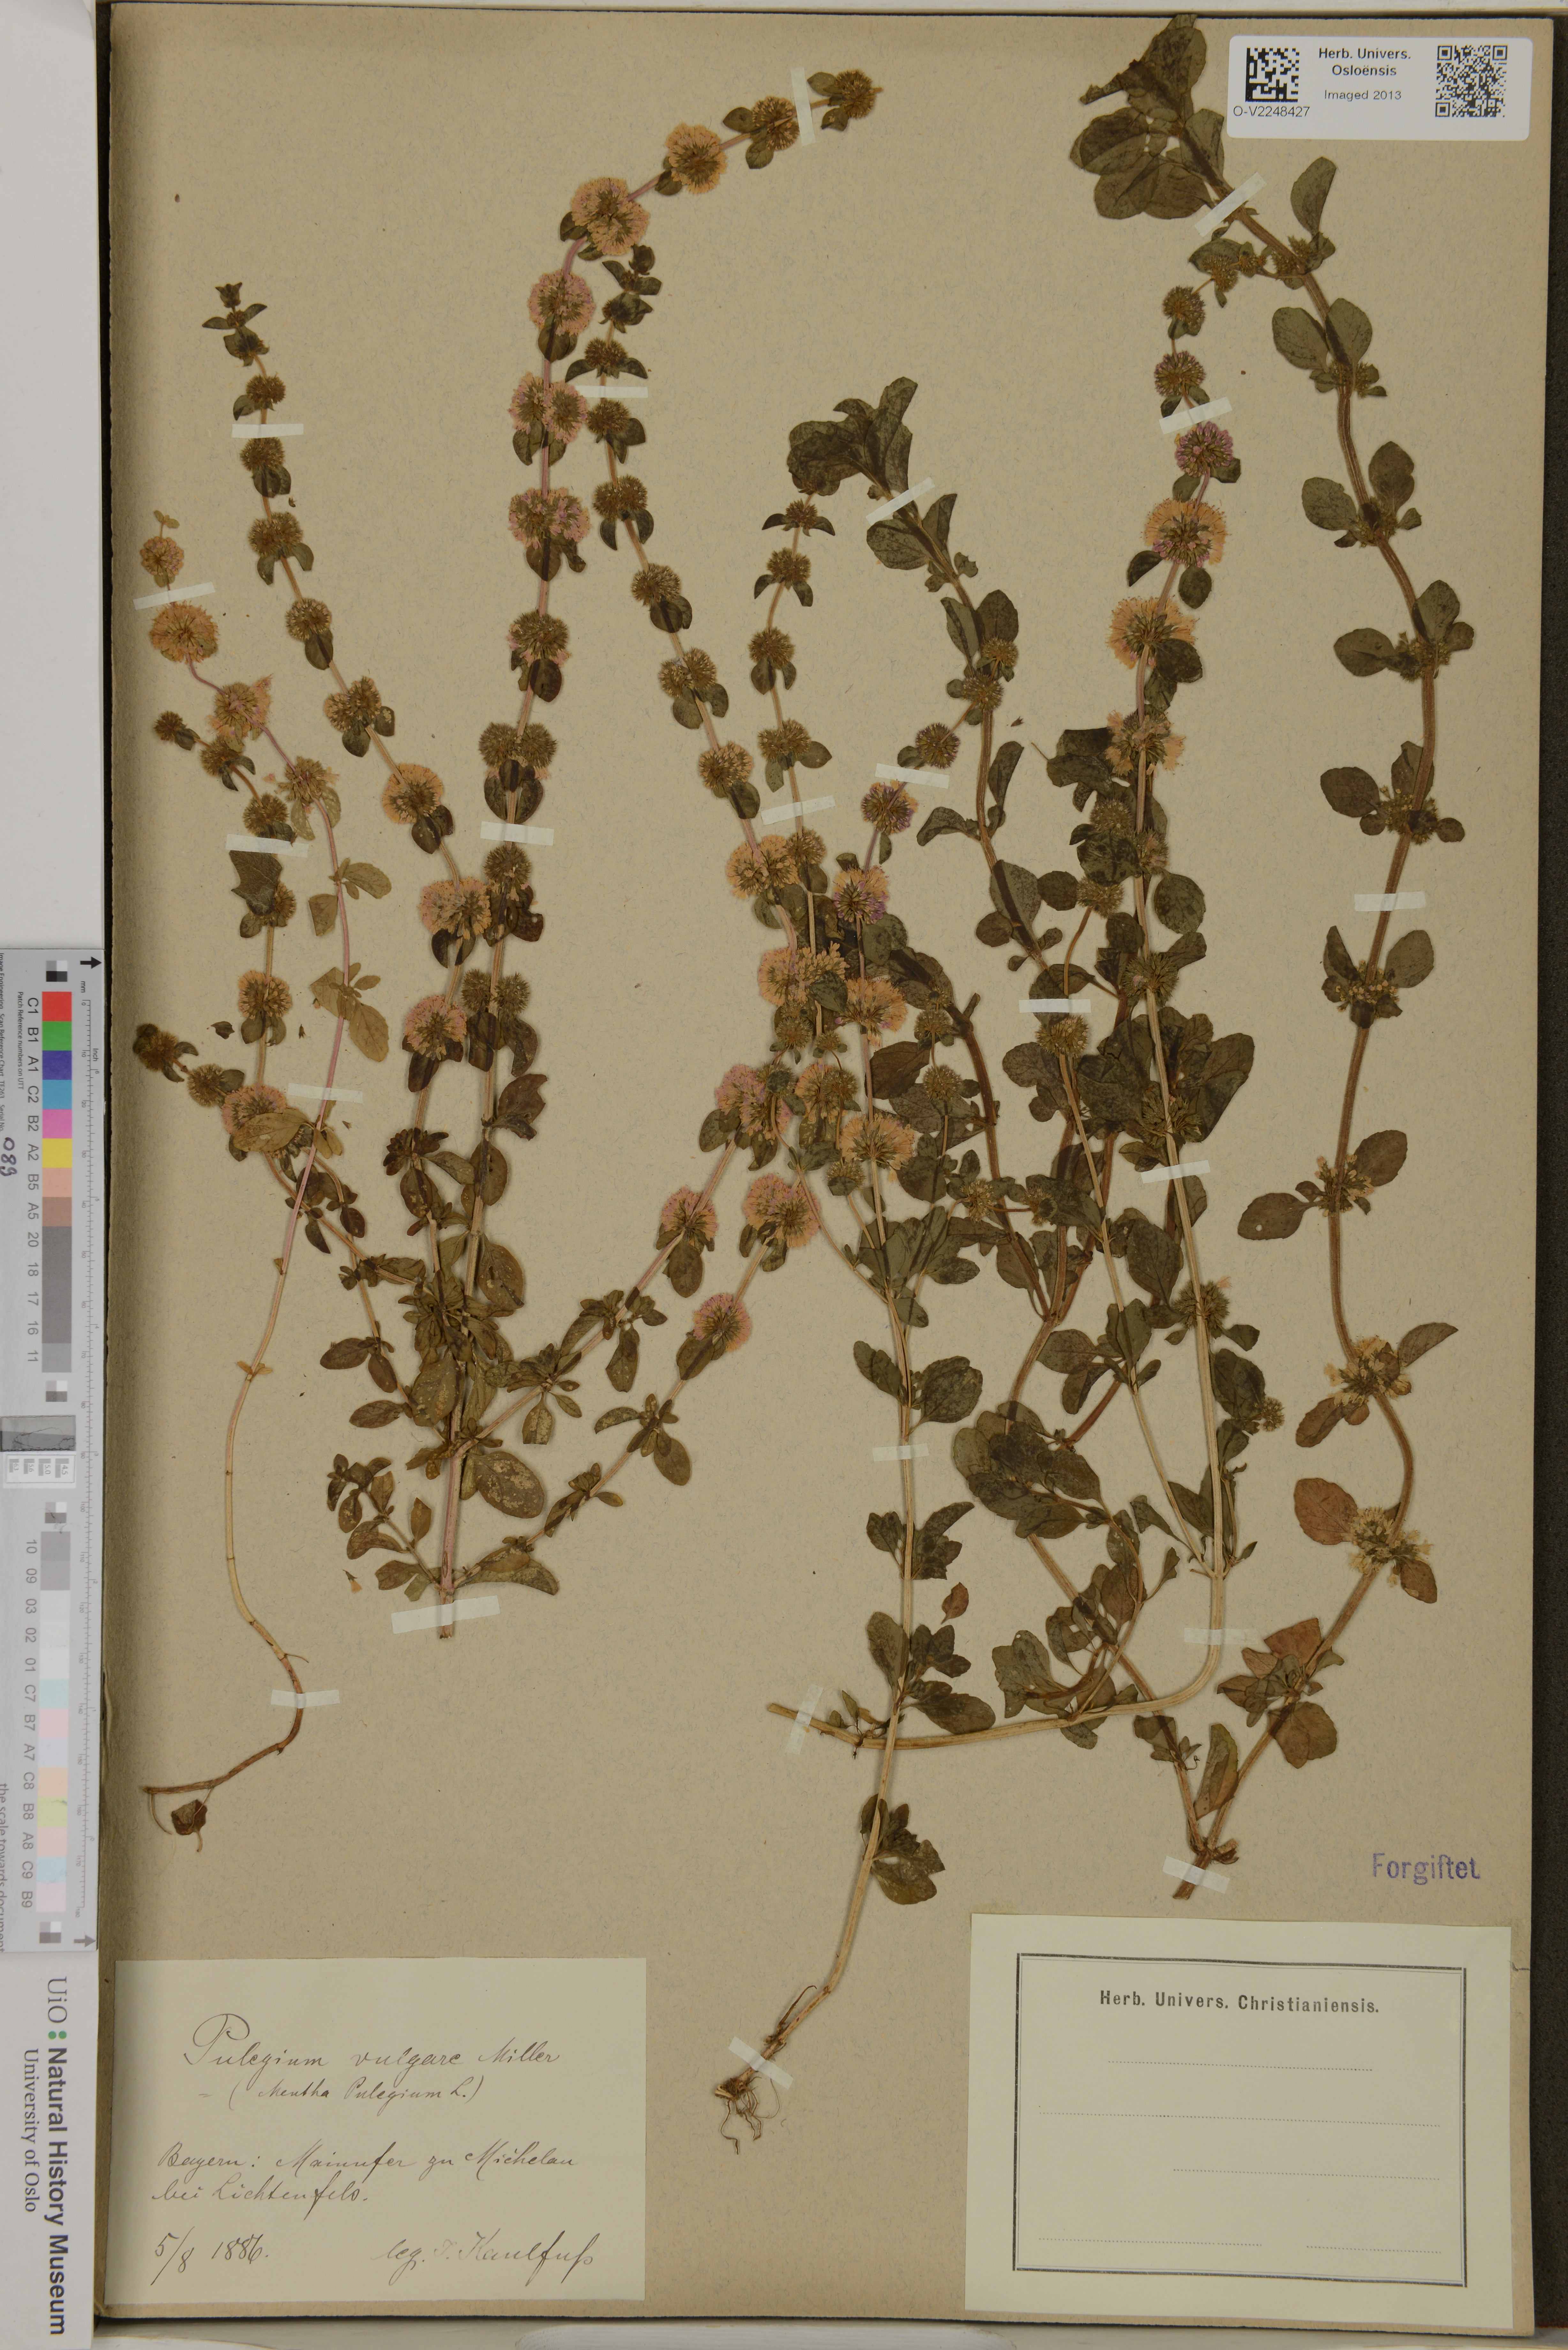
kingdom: Plantae
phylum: Tracheophyta
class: Magnoliopsida
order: Lamiales
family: Lamiaceae
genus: Mentha
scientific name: Mentha pulegium
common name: Pennyroyal
